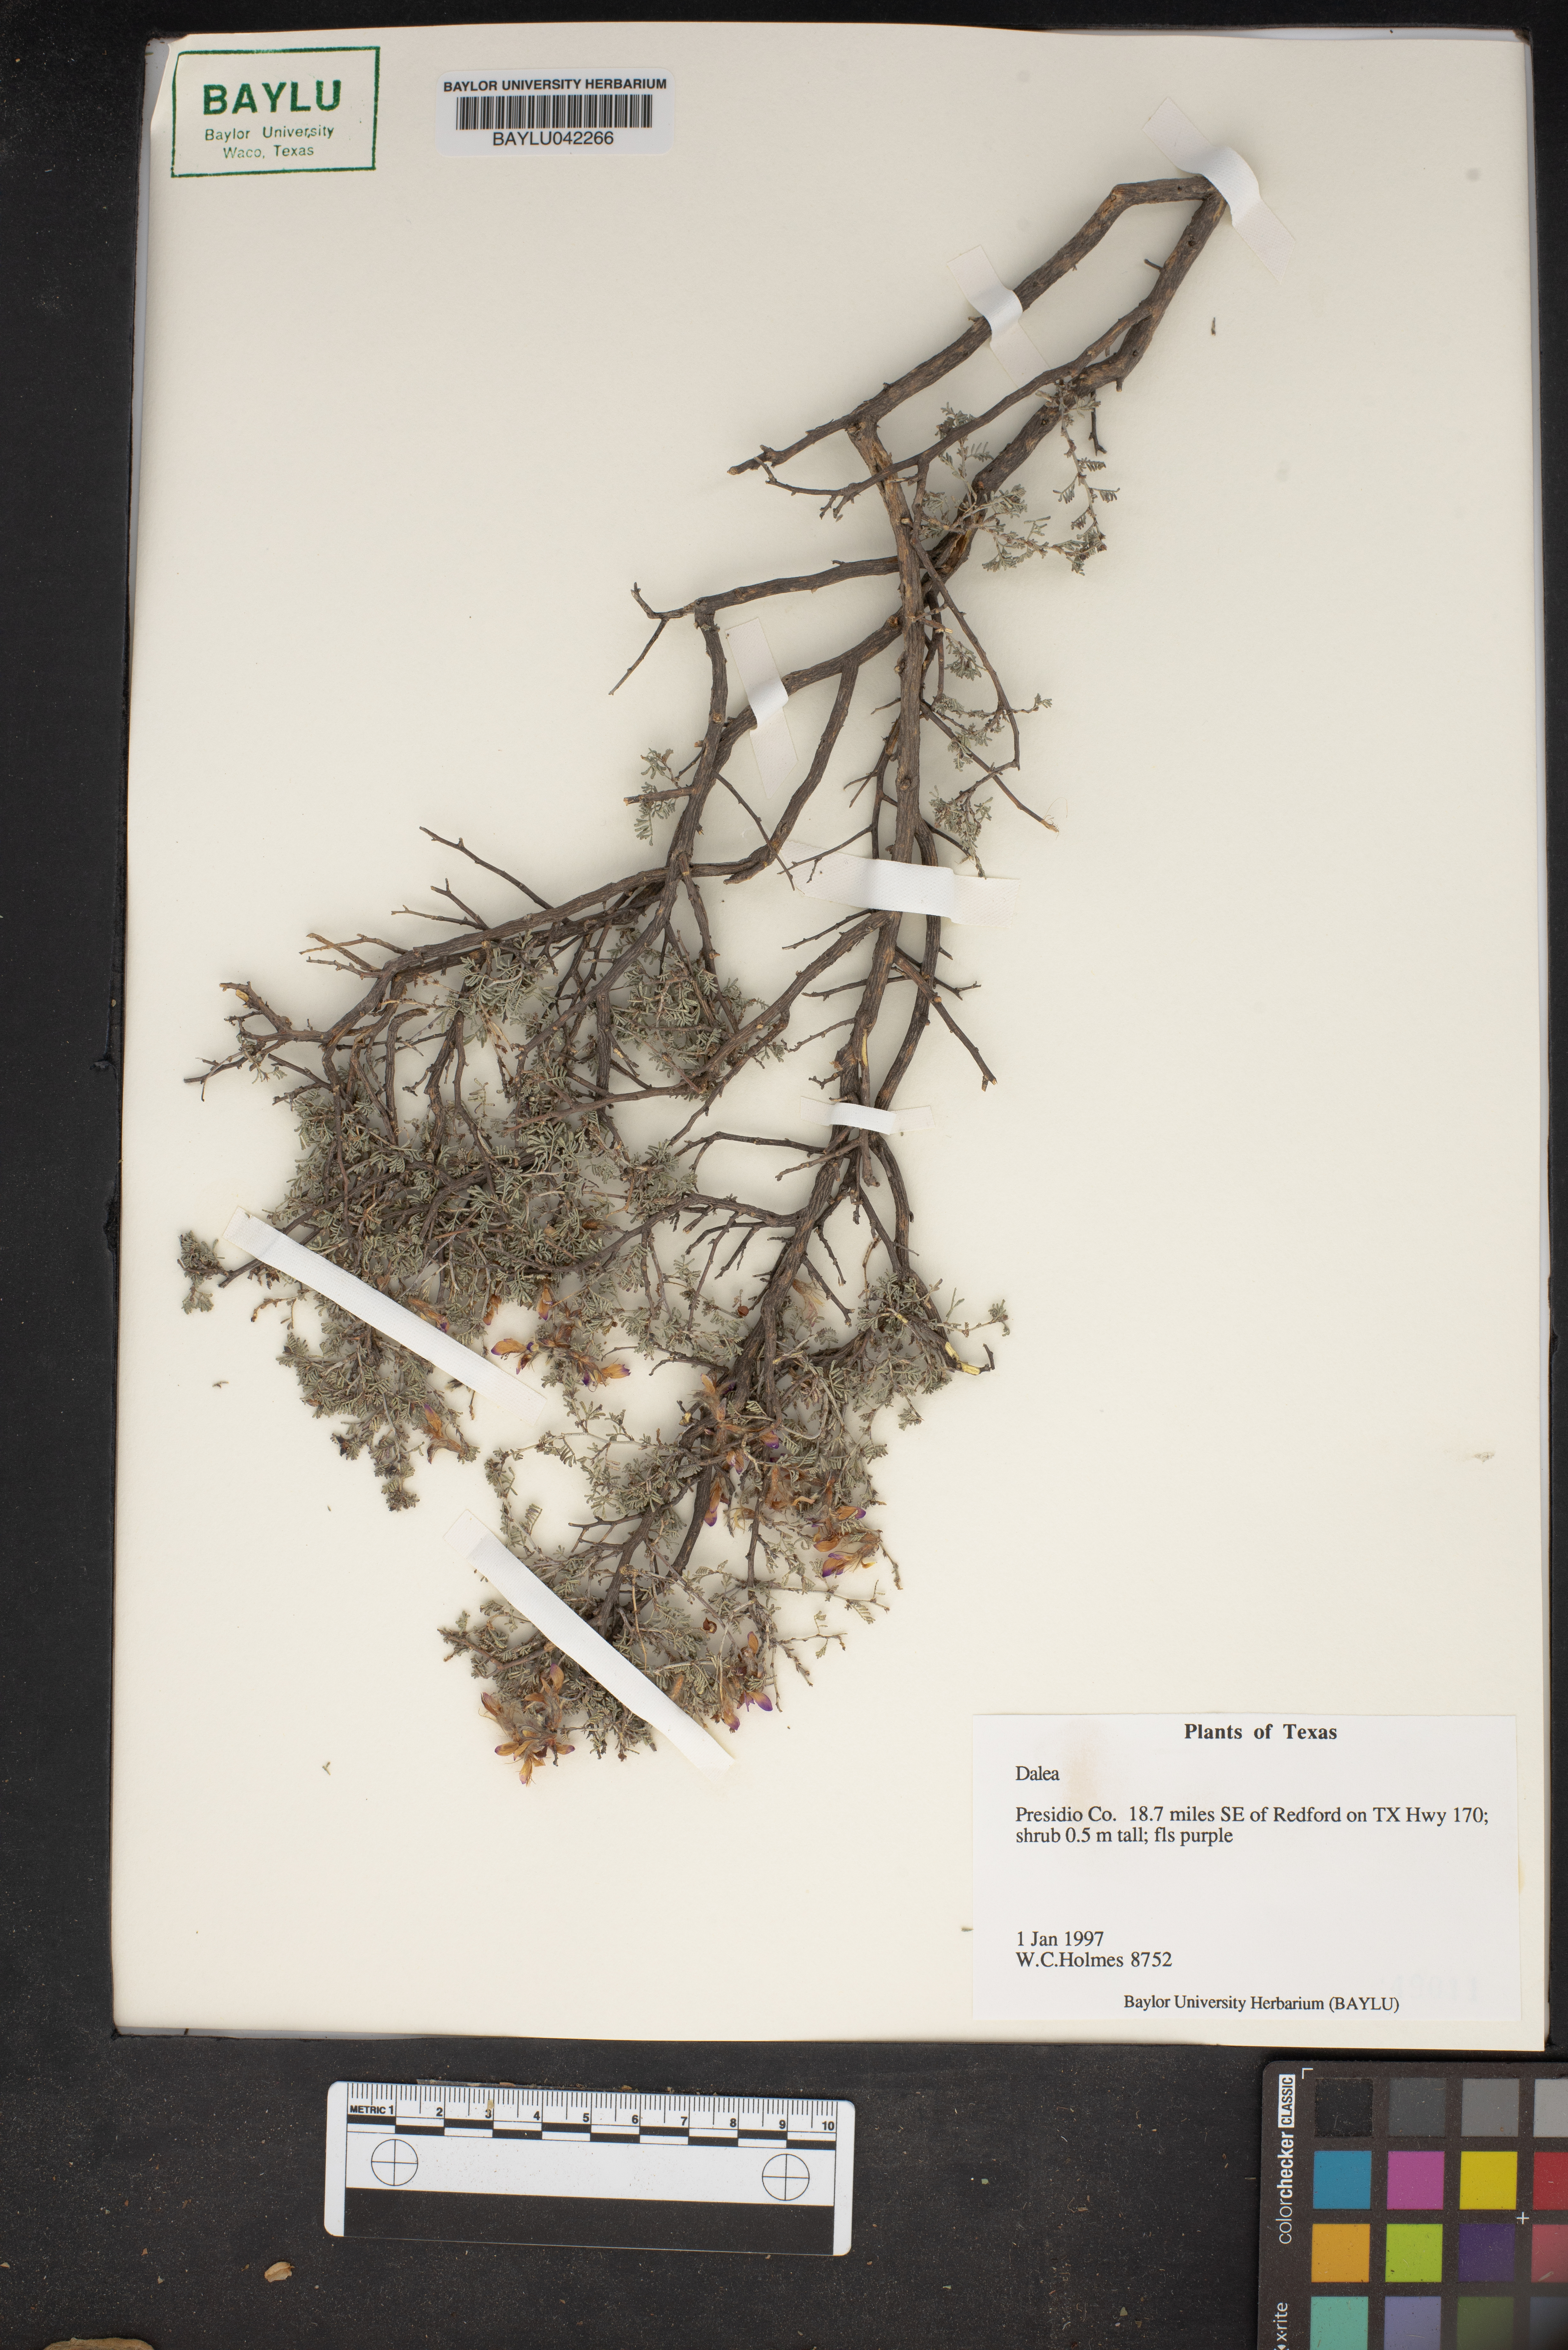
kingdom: Plantae
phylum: Tracheophyta
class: Magnoliopsida
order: Fabales
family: Fabaceae
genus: Dalea
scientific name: Dalea
